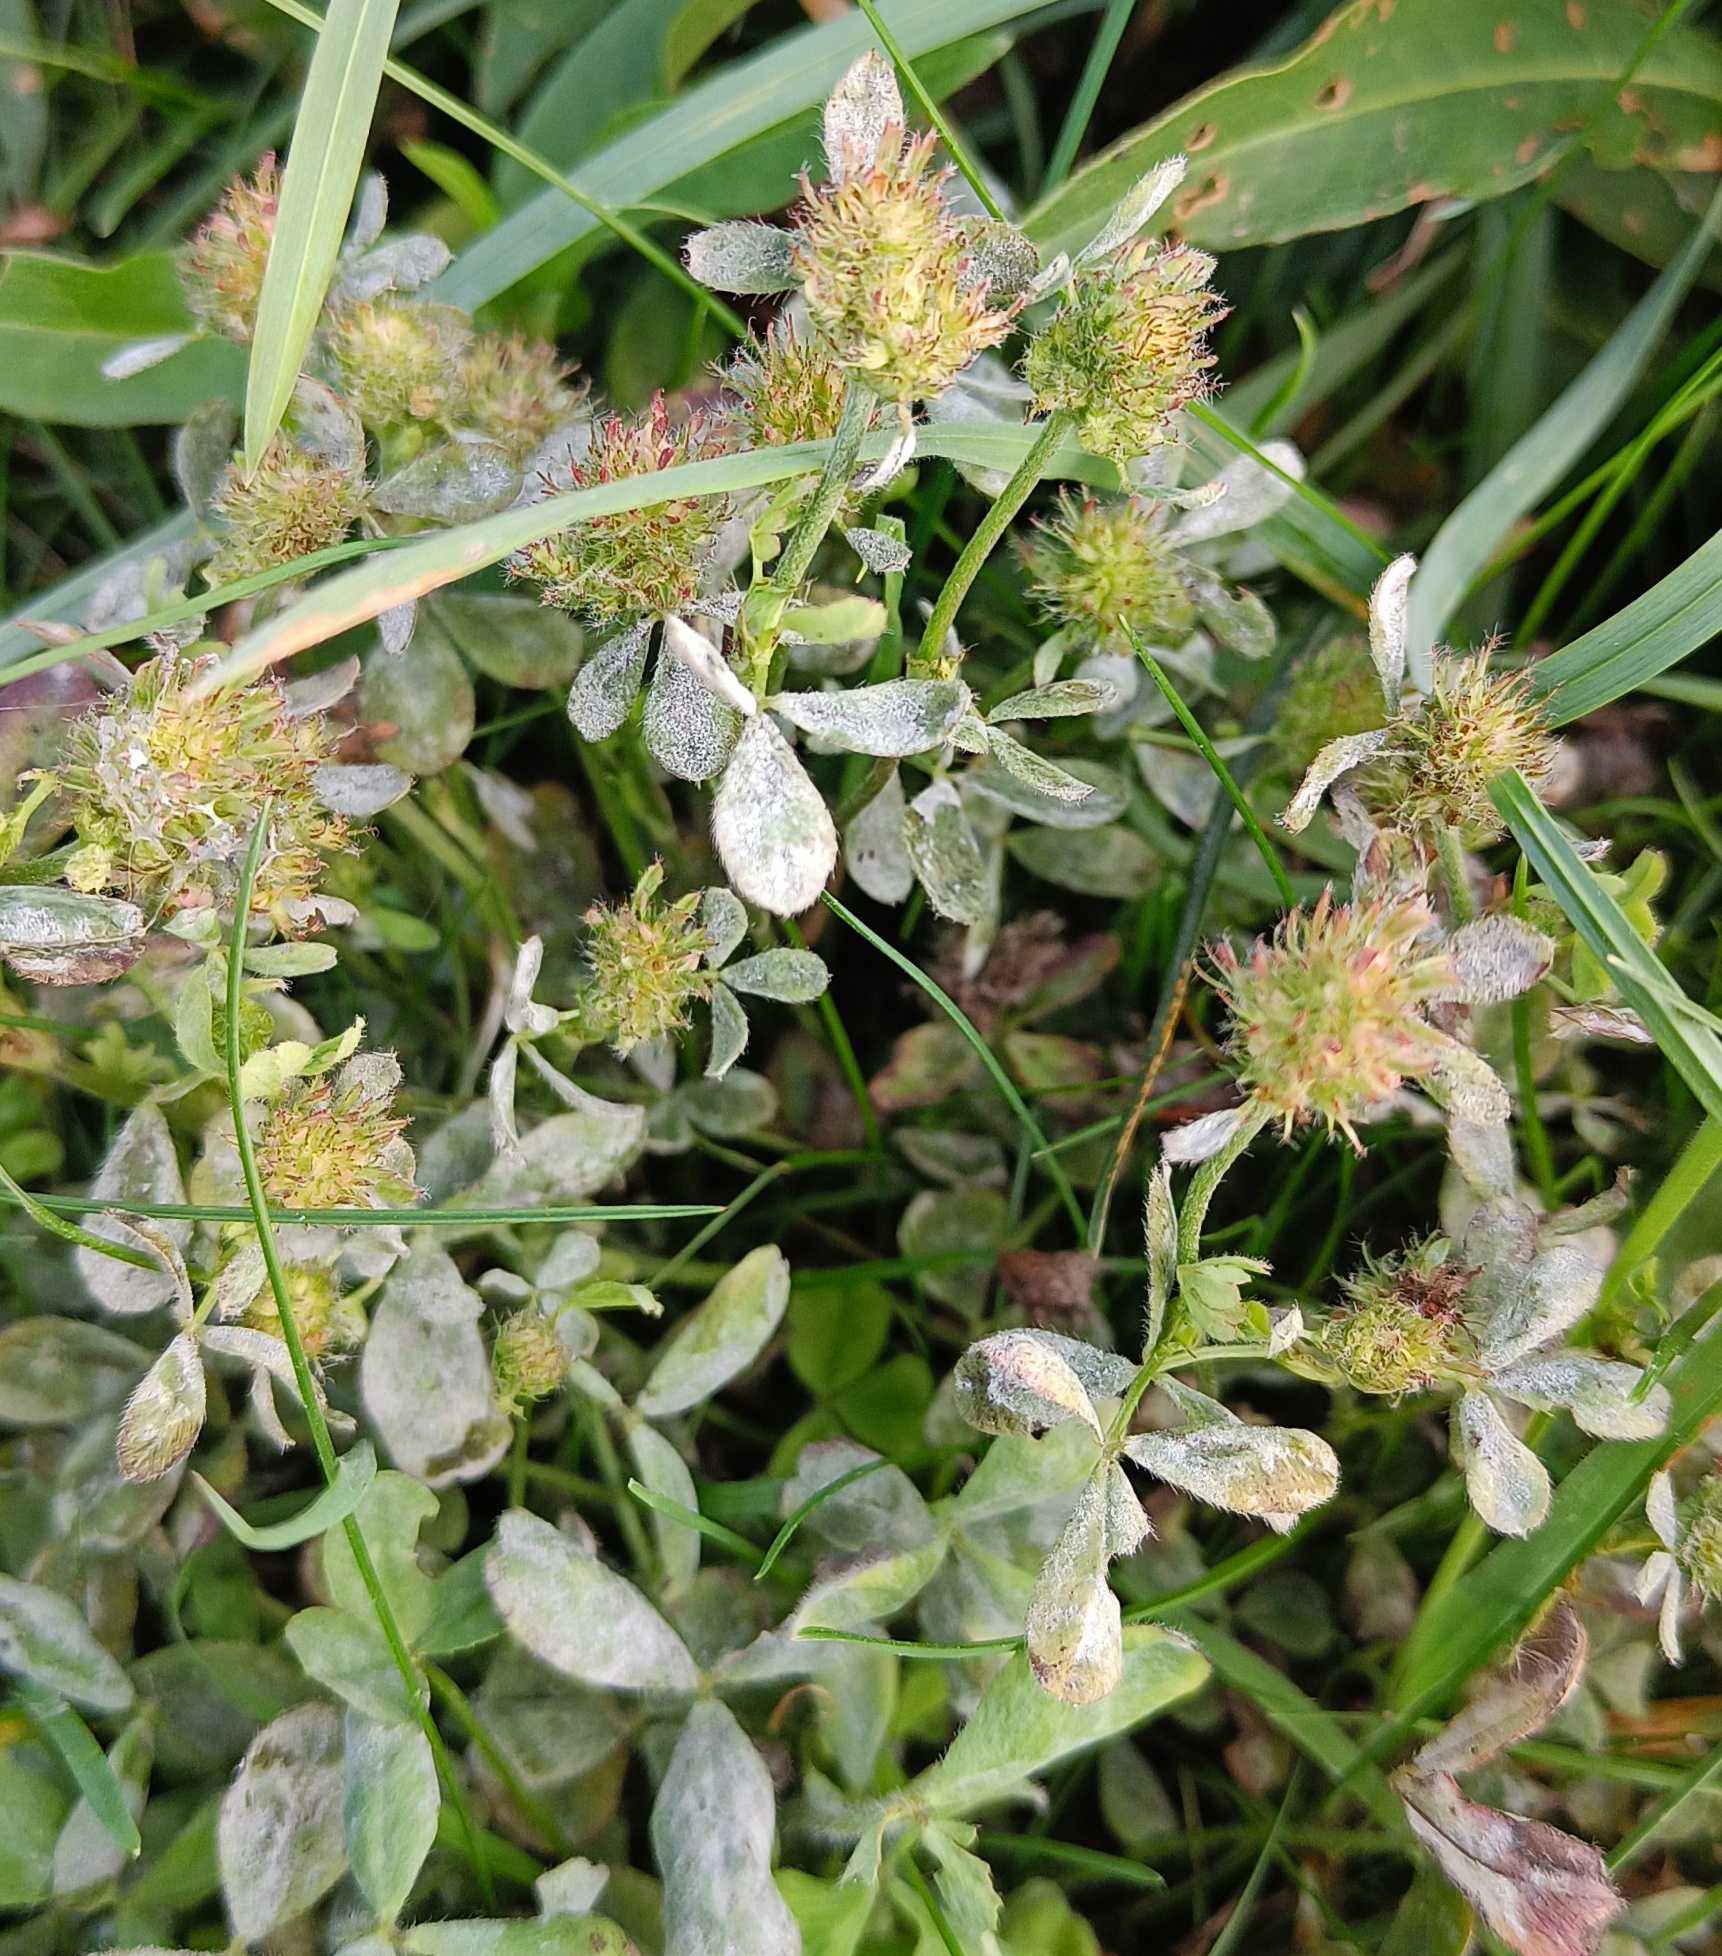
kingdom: Plantae
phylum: Tracheophyta
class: Magnoliopsida
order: Fabales
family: Fabaceae
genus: Trifolium
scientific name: Trifolium pratense
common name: Rød-kløver
